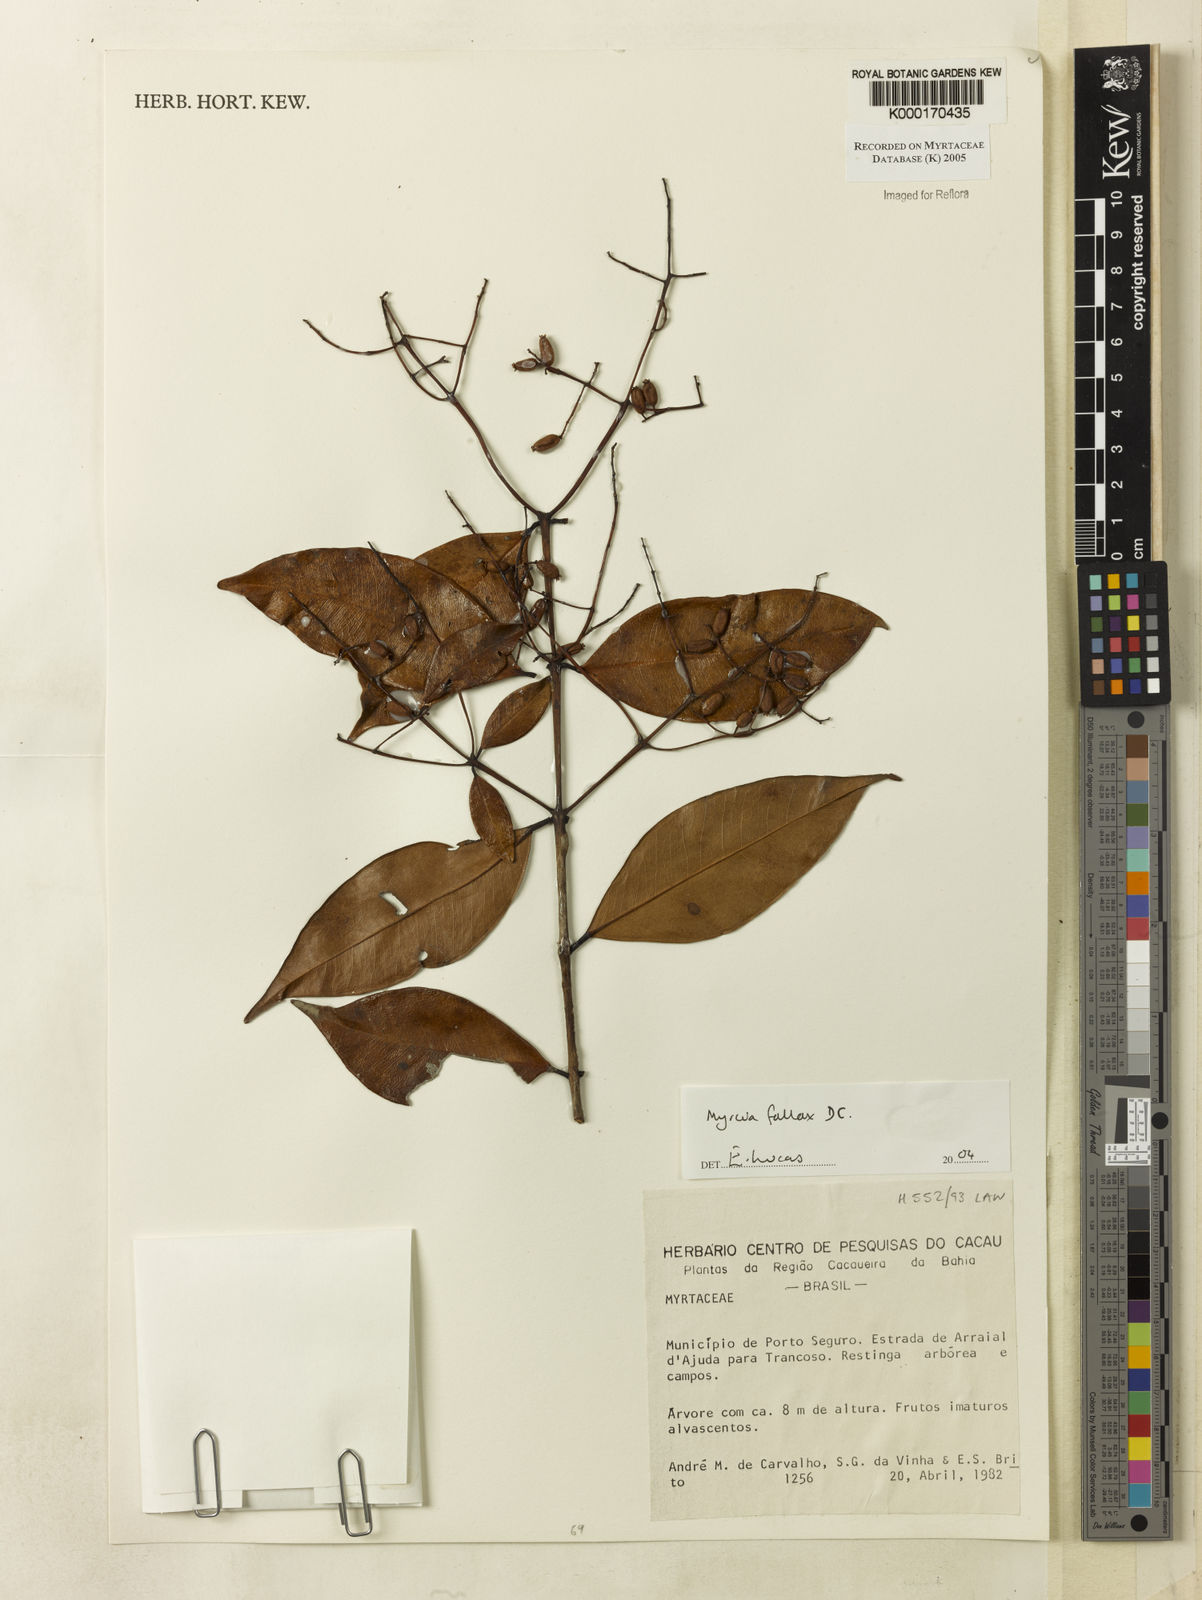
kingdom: Plantae
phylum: Tracheophyta
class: Magnoliopsida
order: Myrtales
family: Myrtaceae
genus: Myrcia
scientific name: Myrcia splendens
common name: Surinam cherry
